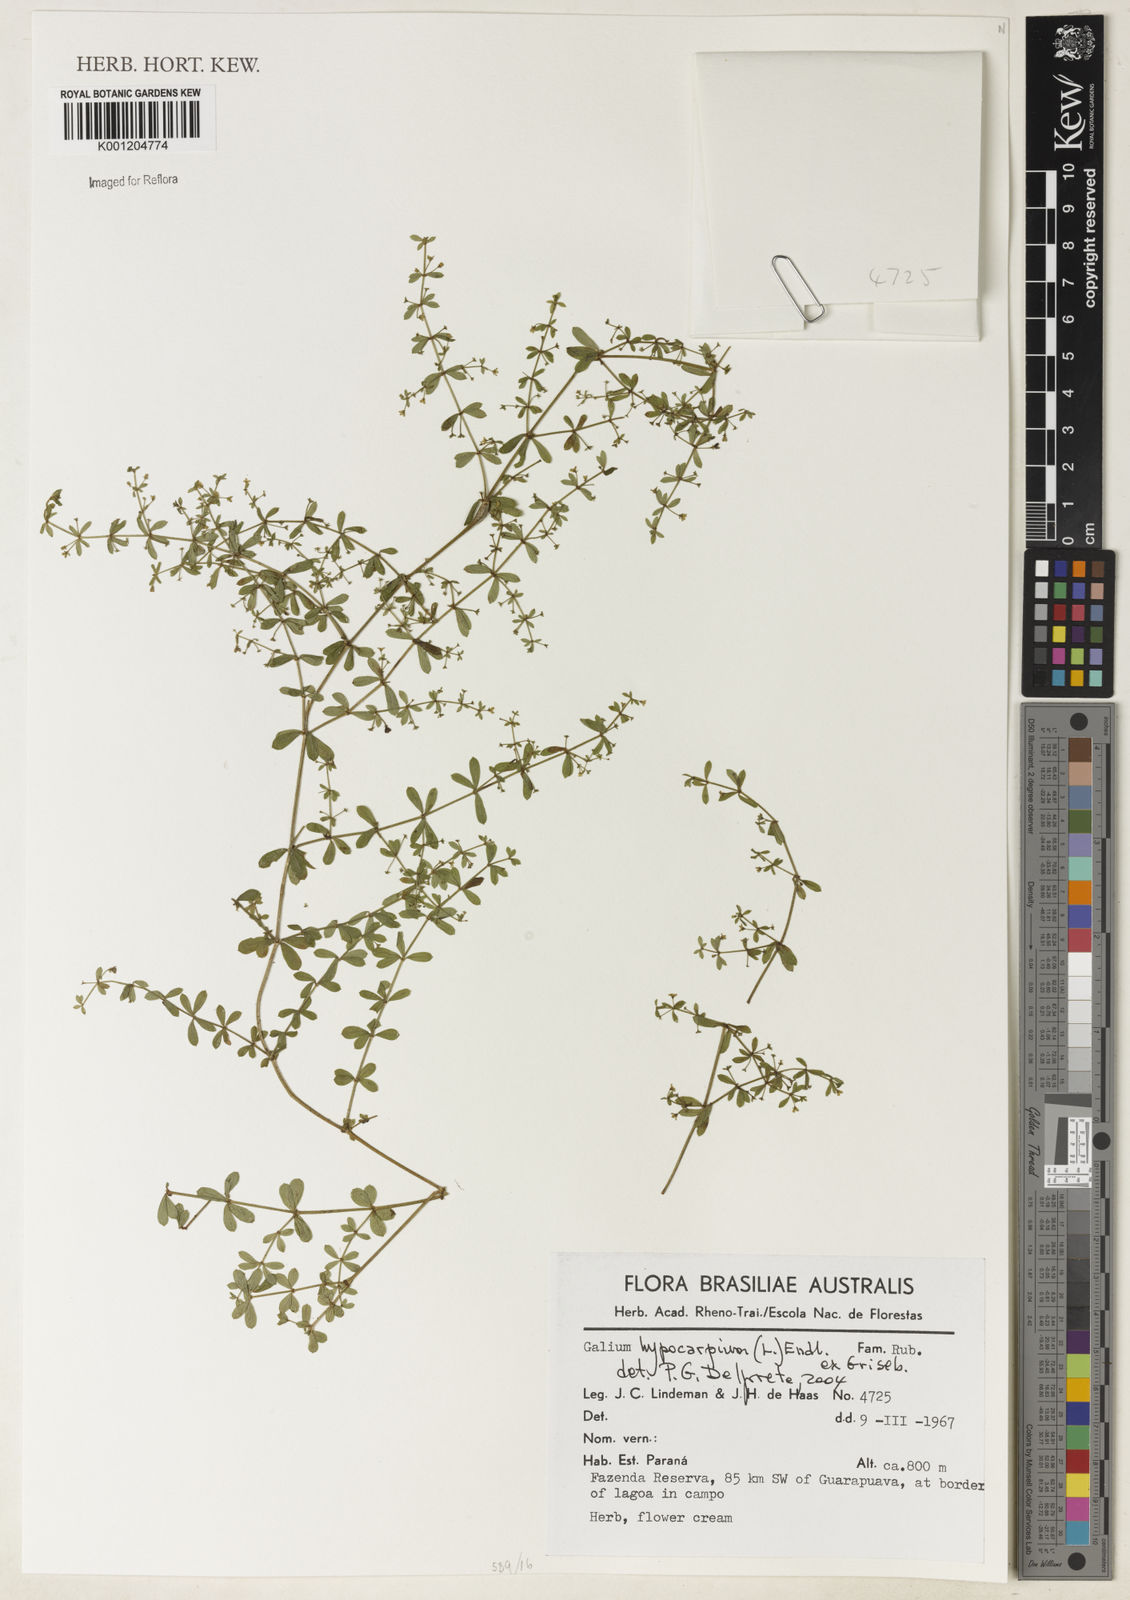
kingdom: Plantae
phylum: Tracheophyta
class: Magnoliopsida
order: Gentianales
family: Rubiaceae
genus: Galium
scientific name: Galium hypocarpium
